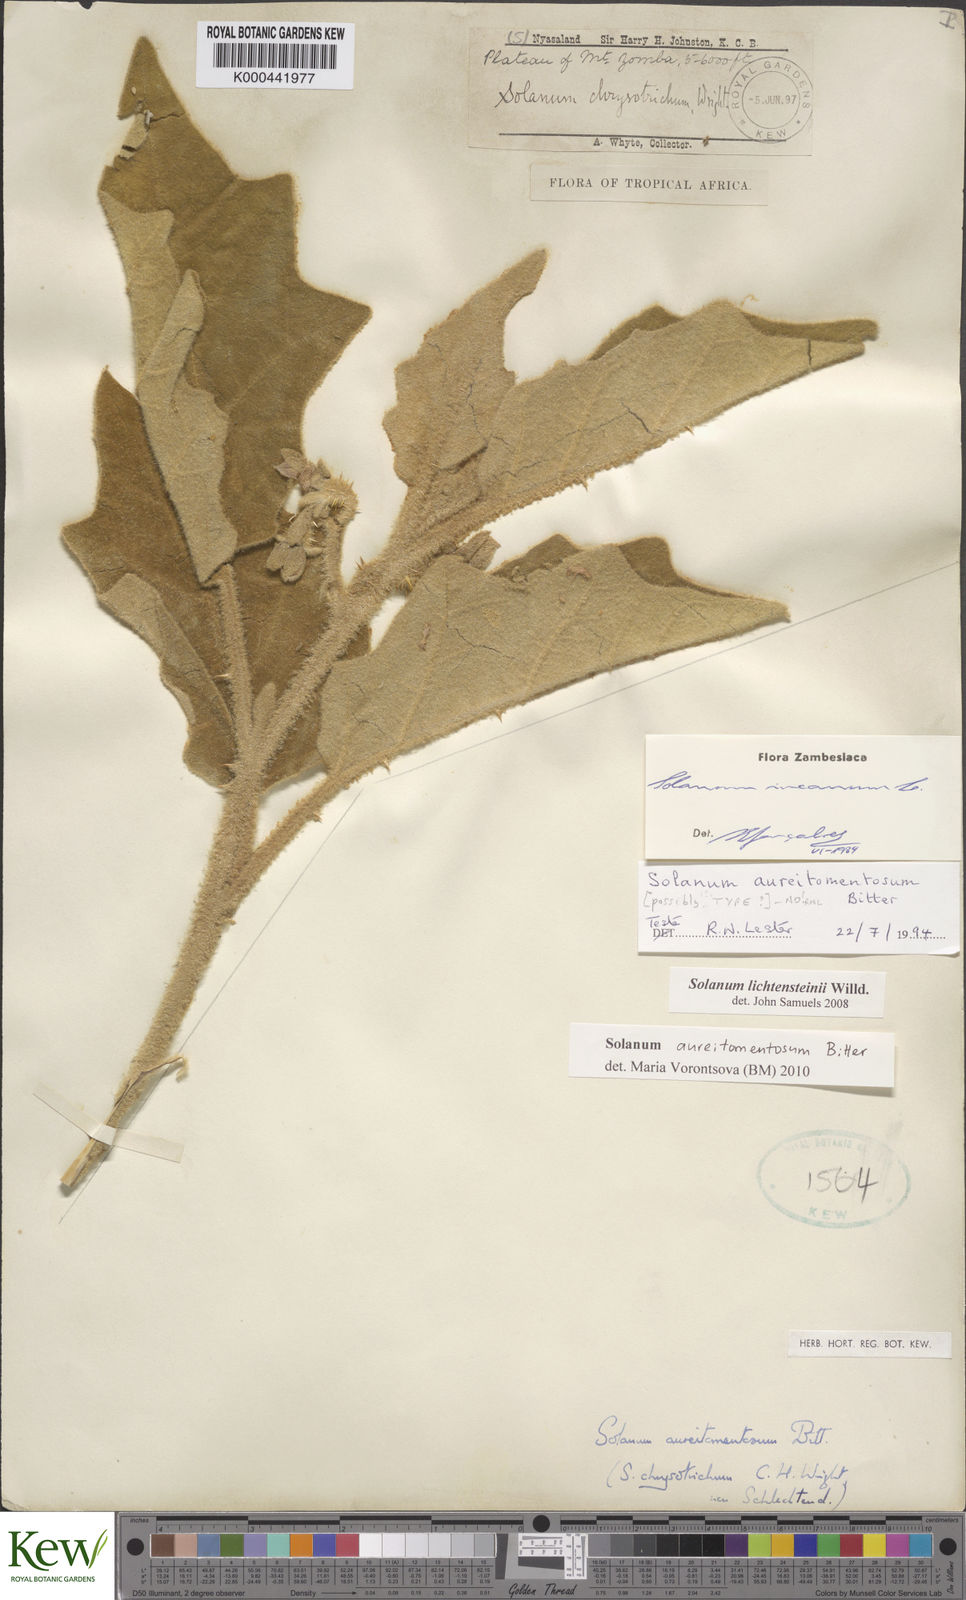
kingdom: Plantae
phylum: Tracheophyta
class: Magnoliopsida
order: Solanales
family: Solanaceae
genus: Solanum
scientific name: Solanum aureitomentosum
